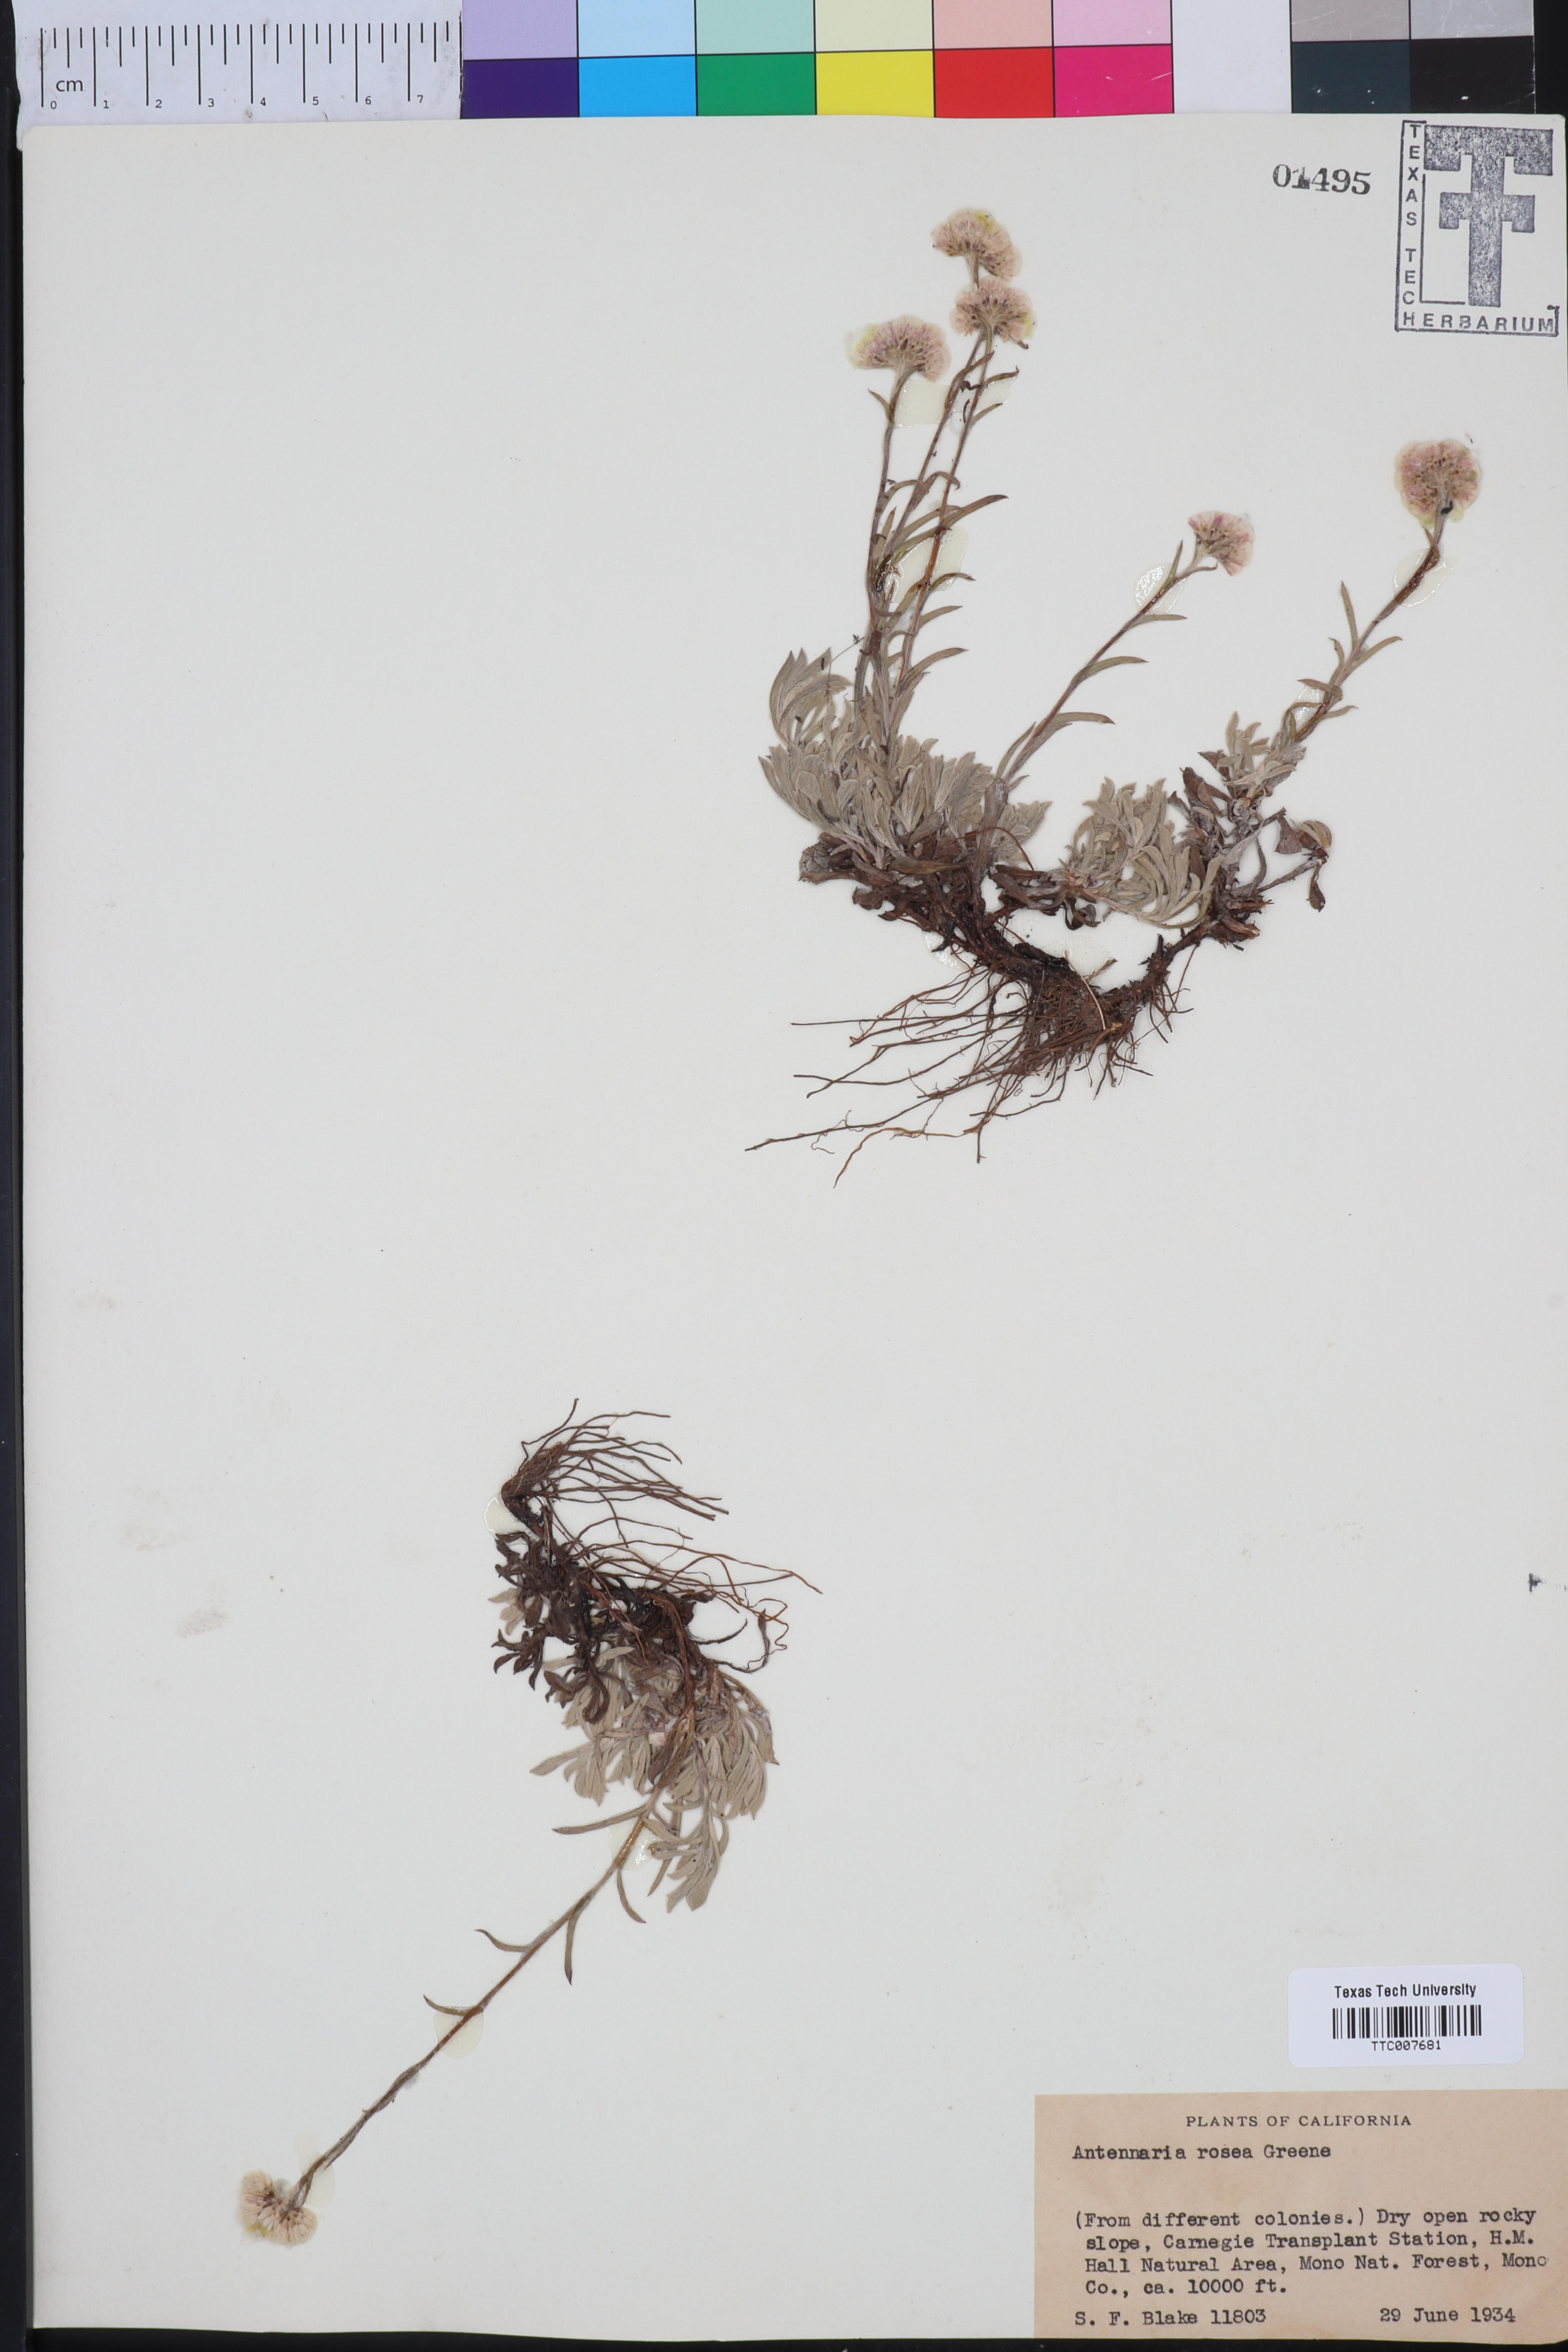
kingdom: Plantae
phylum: Tracheophyta
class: Magnoliopsida
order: Asterales
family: Asteraceae
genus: Antennaria
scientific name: Antennaria rosea
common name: Rosy pussytoes
